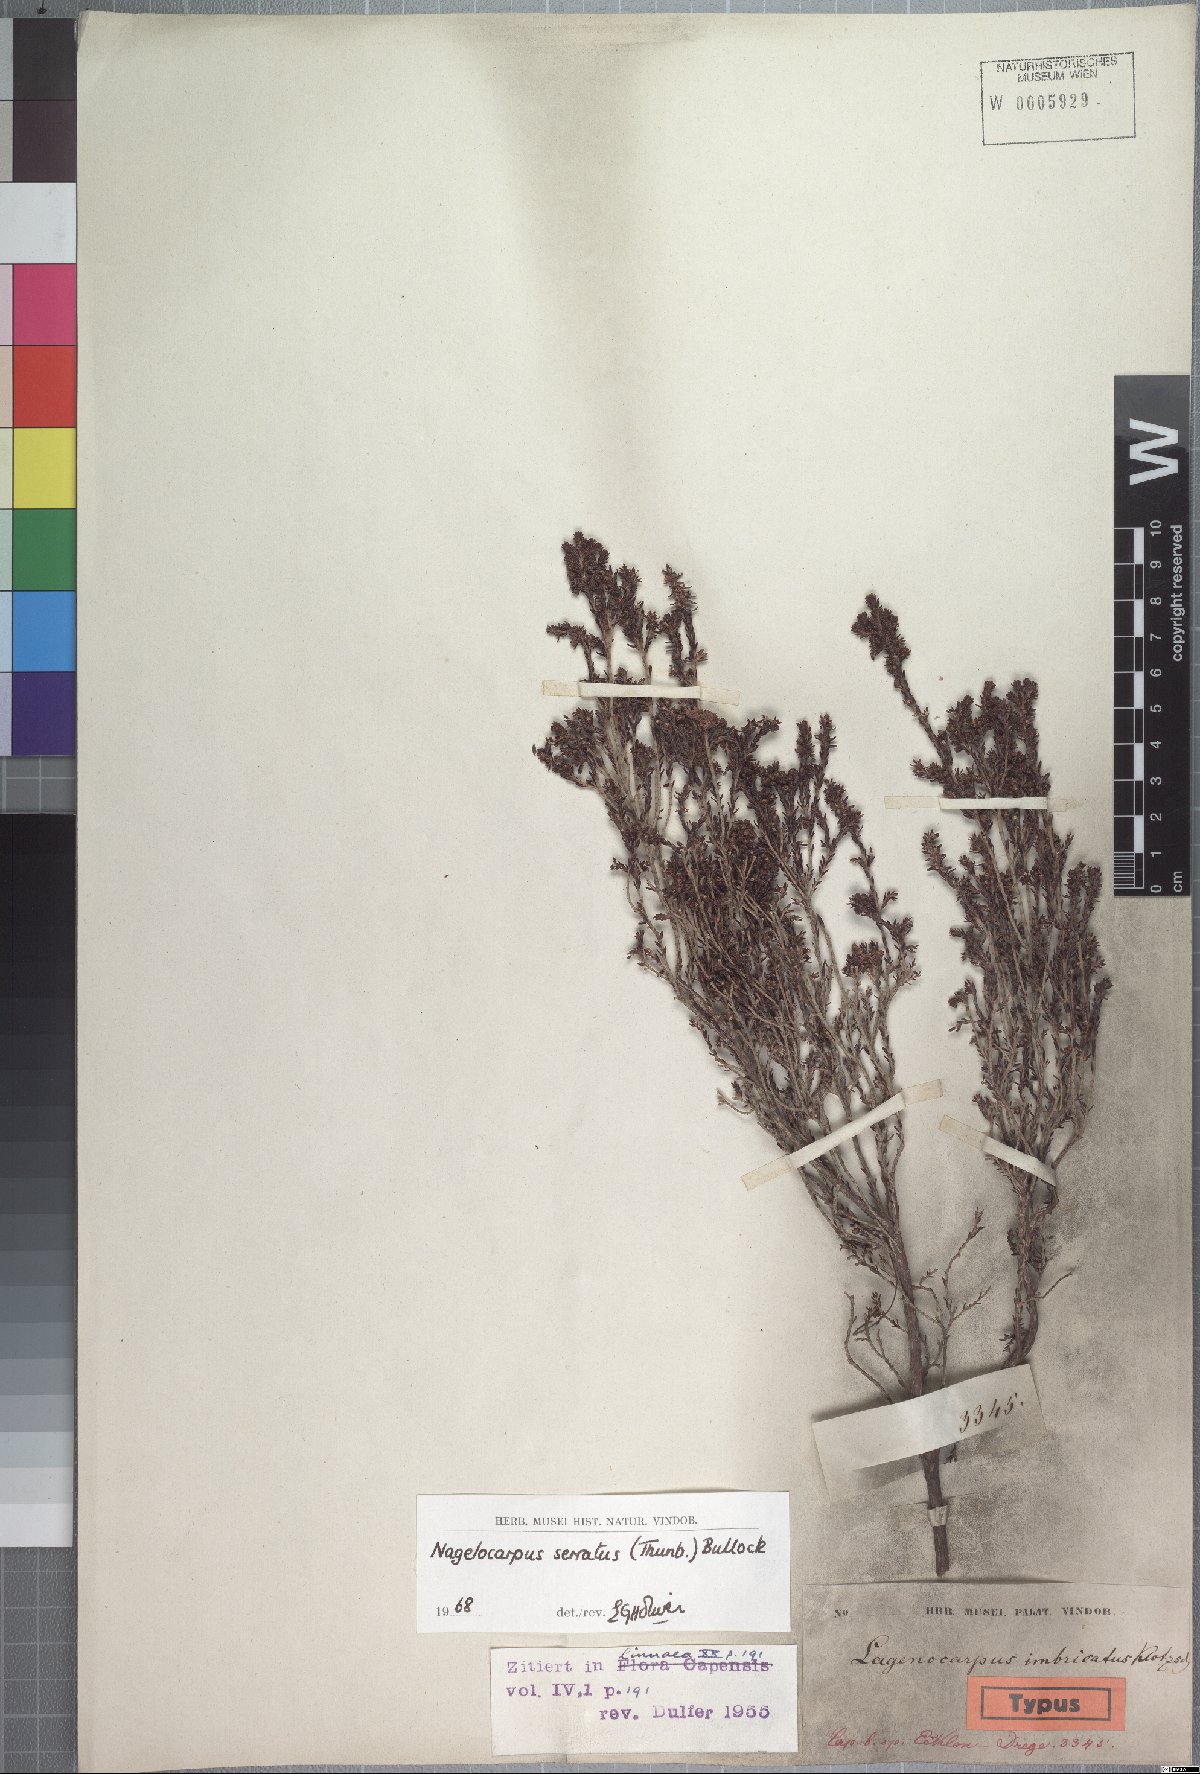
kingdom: Plantae
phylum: Tracheophyta
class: Magnoliopsida
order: Ericales
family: Ericaceae
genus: Erica
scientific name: Erica serrata
